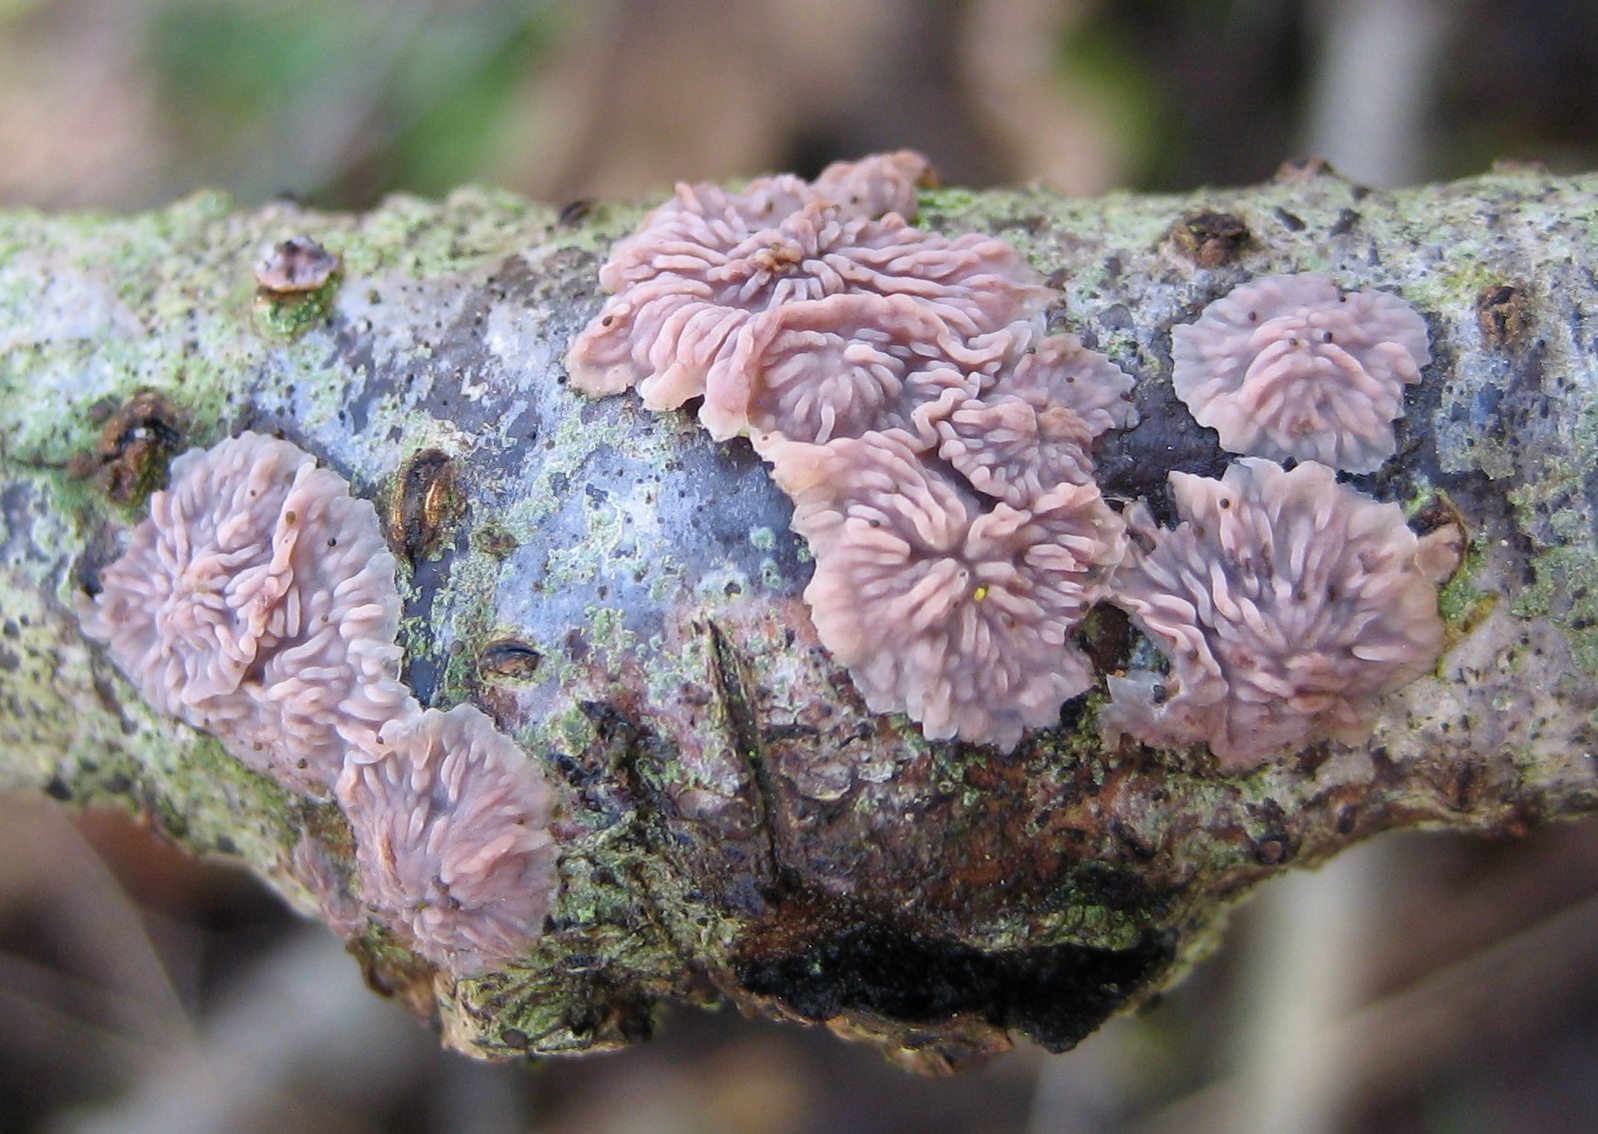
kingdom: Fungi
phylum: Basidiomycota
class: Agaricomycetes
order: Polyporales
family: Meruliaceae
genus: Phlebia
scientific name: Phlebia radiata
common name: stråle-åresvamp
